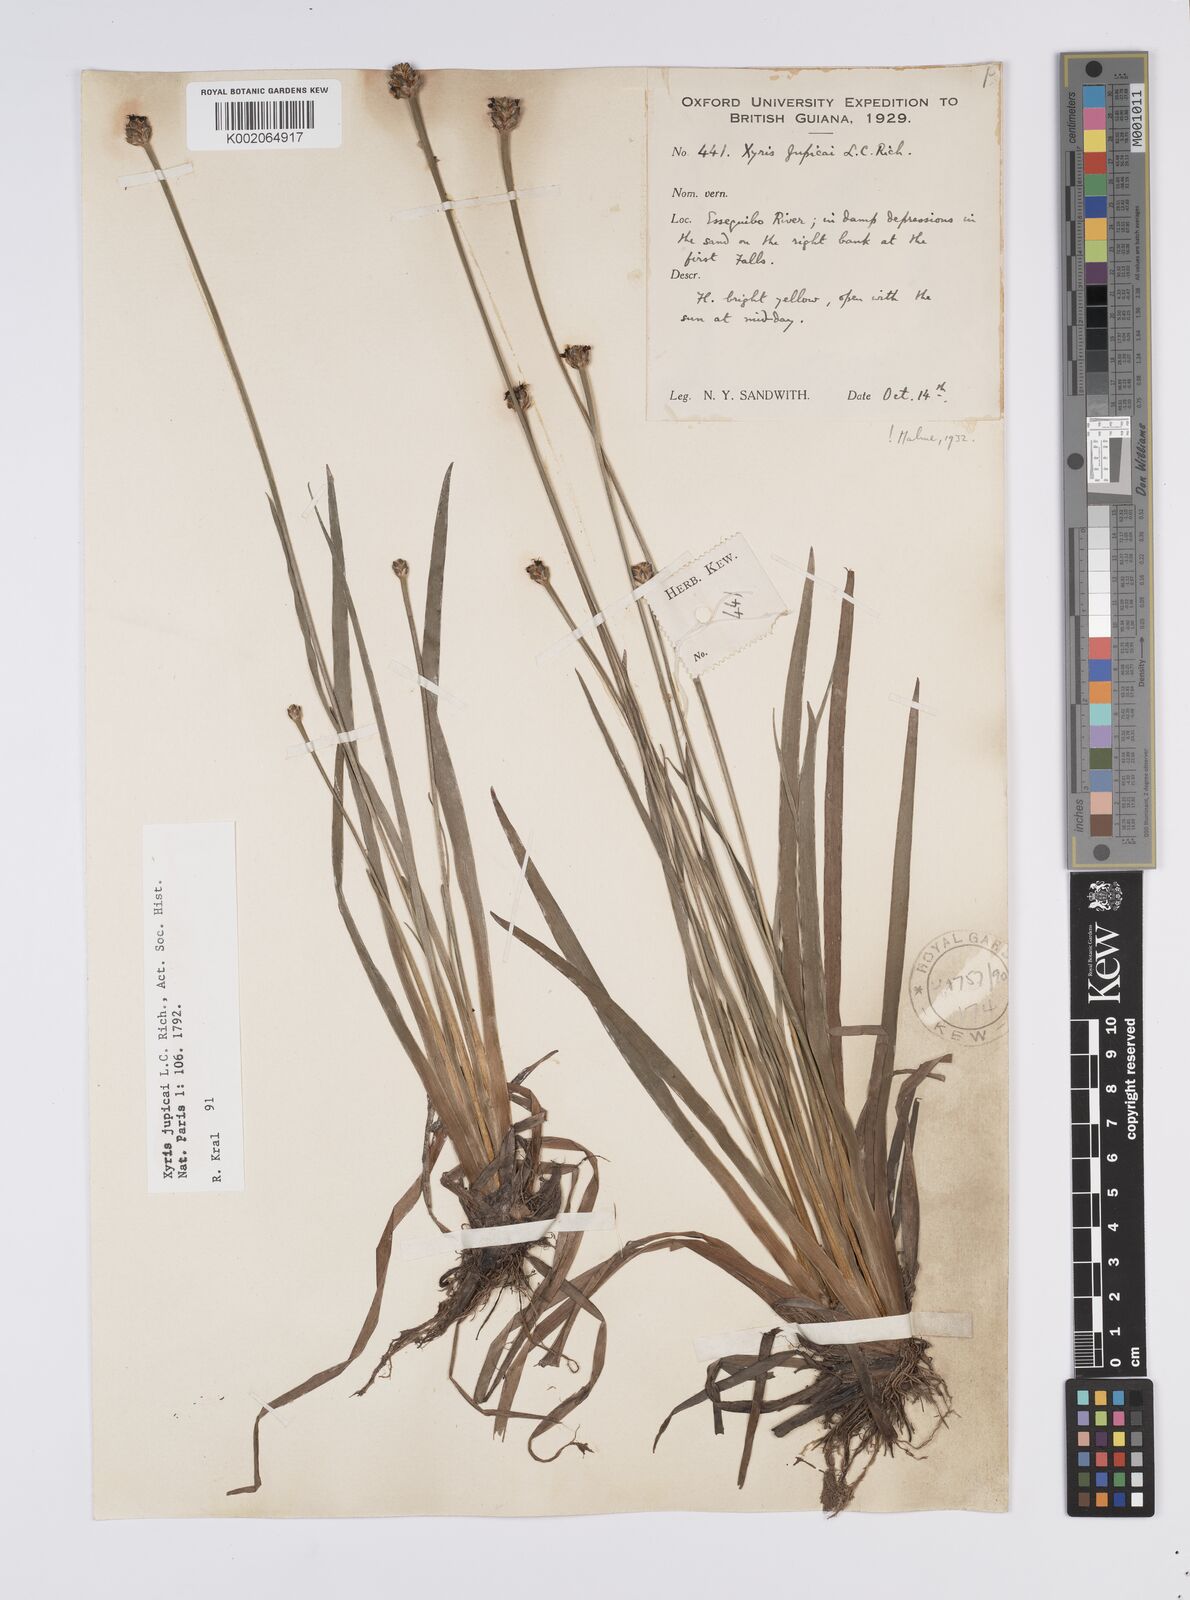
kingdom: Plantae
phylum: Tracheophyta
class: Liliopsida
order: Poales
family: Xyridaceae
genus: Xyris
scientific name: Xyris jupicai
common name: Richard's yelloweyed grass
